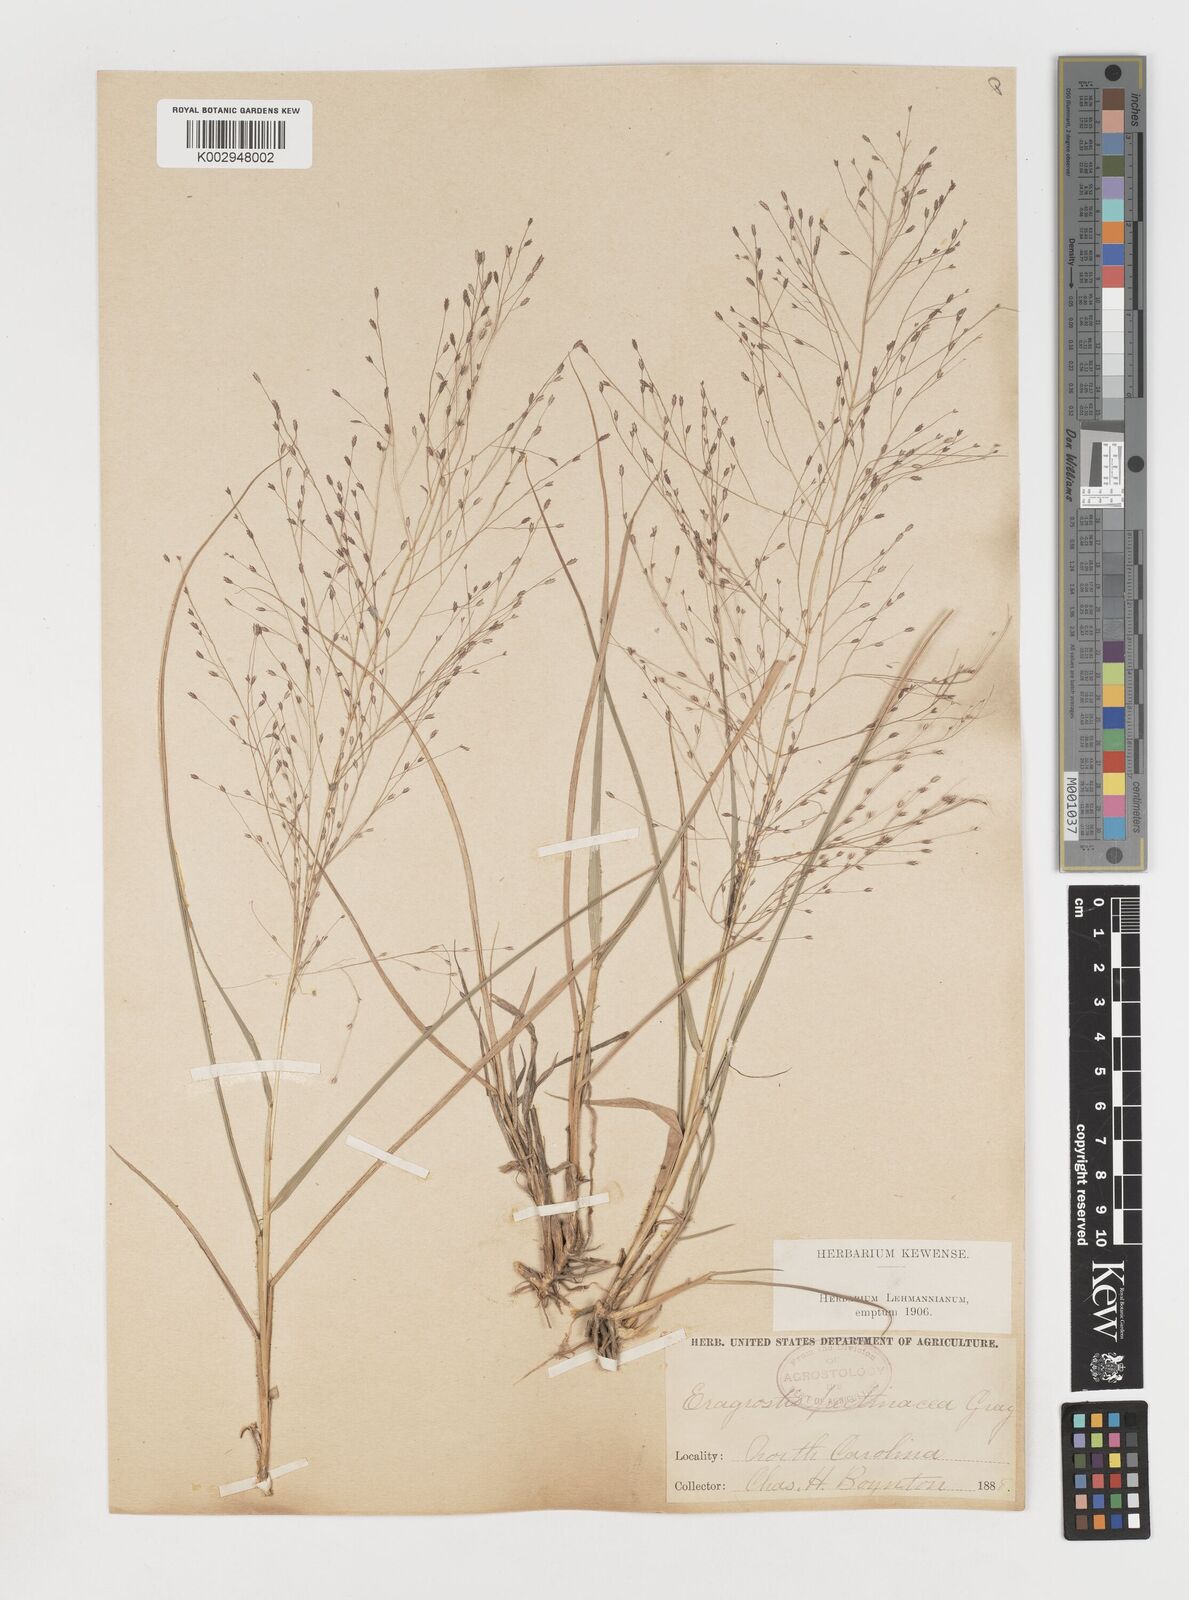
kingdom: Plantae
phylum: Tracheophyta
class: Liliopsida
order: Poales
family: Poaceae
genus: Eragrostis
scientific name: Eragrostis spectabilis
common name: Petticoat-climber
